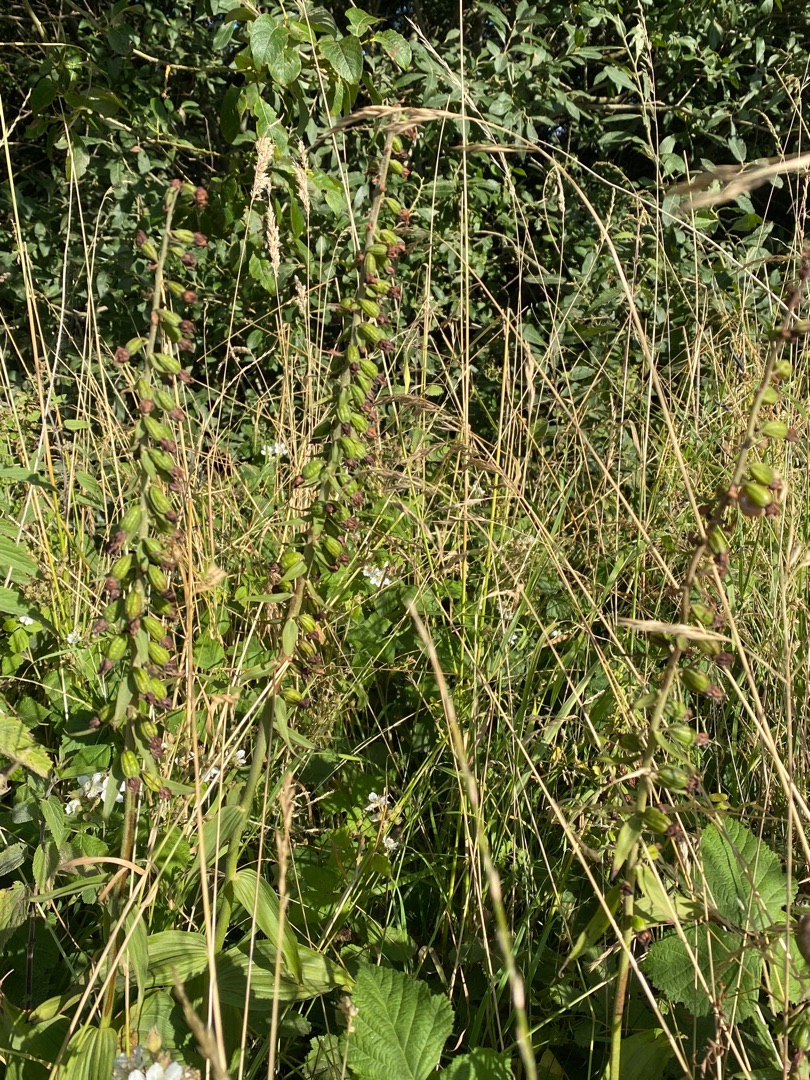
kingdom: Plantae
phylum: Tracheophyta
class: Liliopsida
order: Asparagales
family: Orchidaceae
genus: Epipactis
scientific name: Epipactis helleborine
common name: Skov-hullæbe
